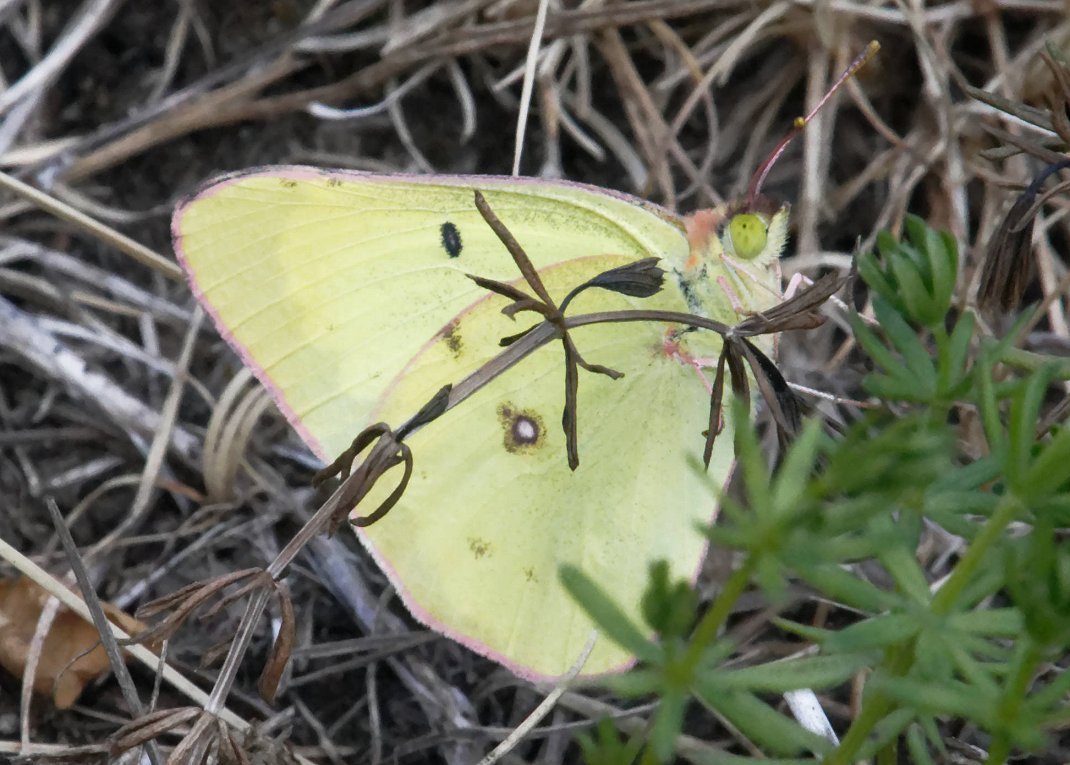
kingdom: Animalia
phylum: Arthropoda
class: Insecta
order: Lepidoptera
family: Pieridae
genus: Colias
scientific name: Colias philodice
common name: Clouded Sulphur
